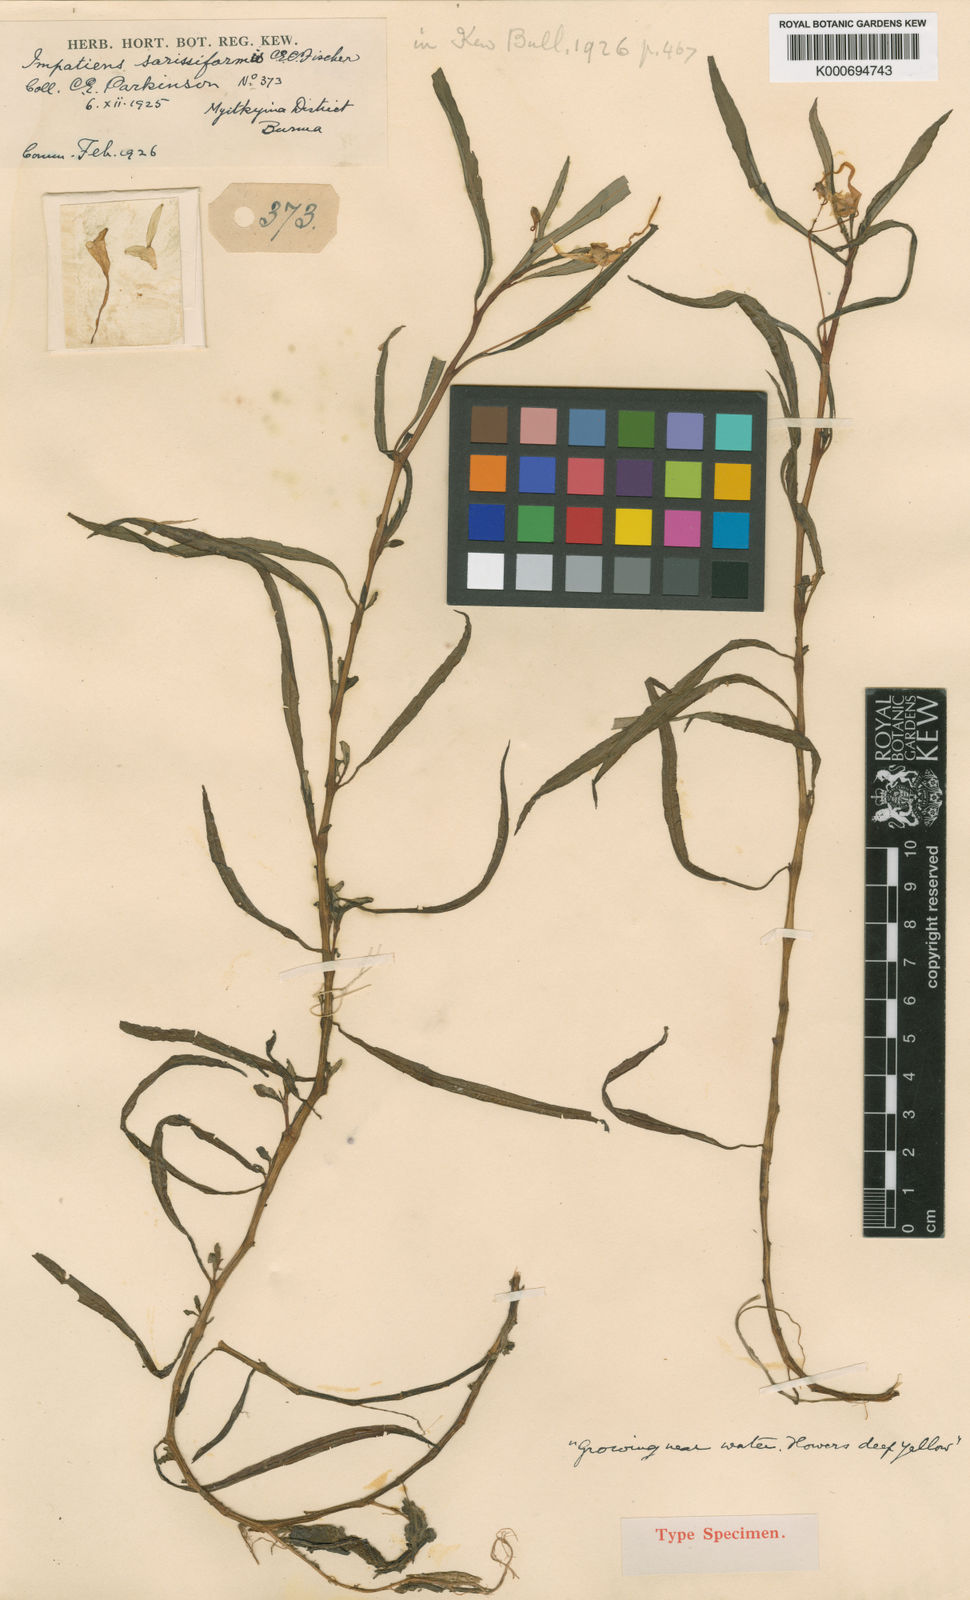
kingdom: Plantae
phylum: Tracheophyta
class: Magnoliopsida
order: Ericales
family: Balsaminaceae
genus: Impatiens
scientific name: Impatiens sarissiformis
